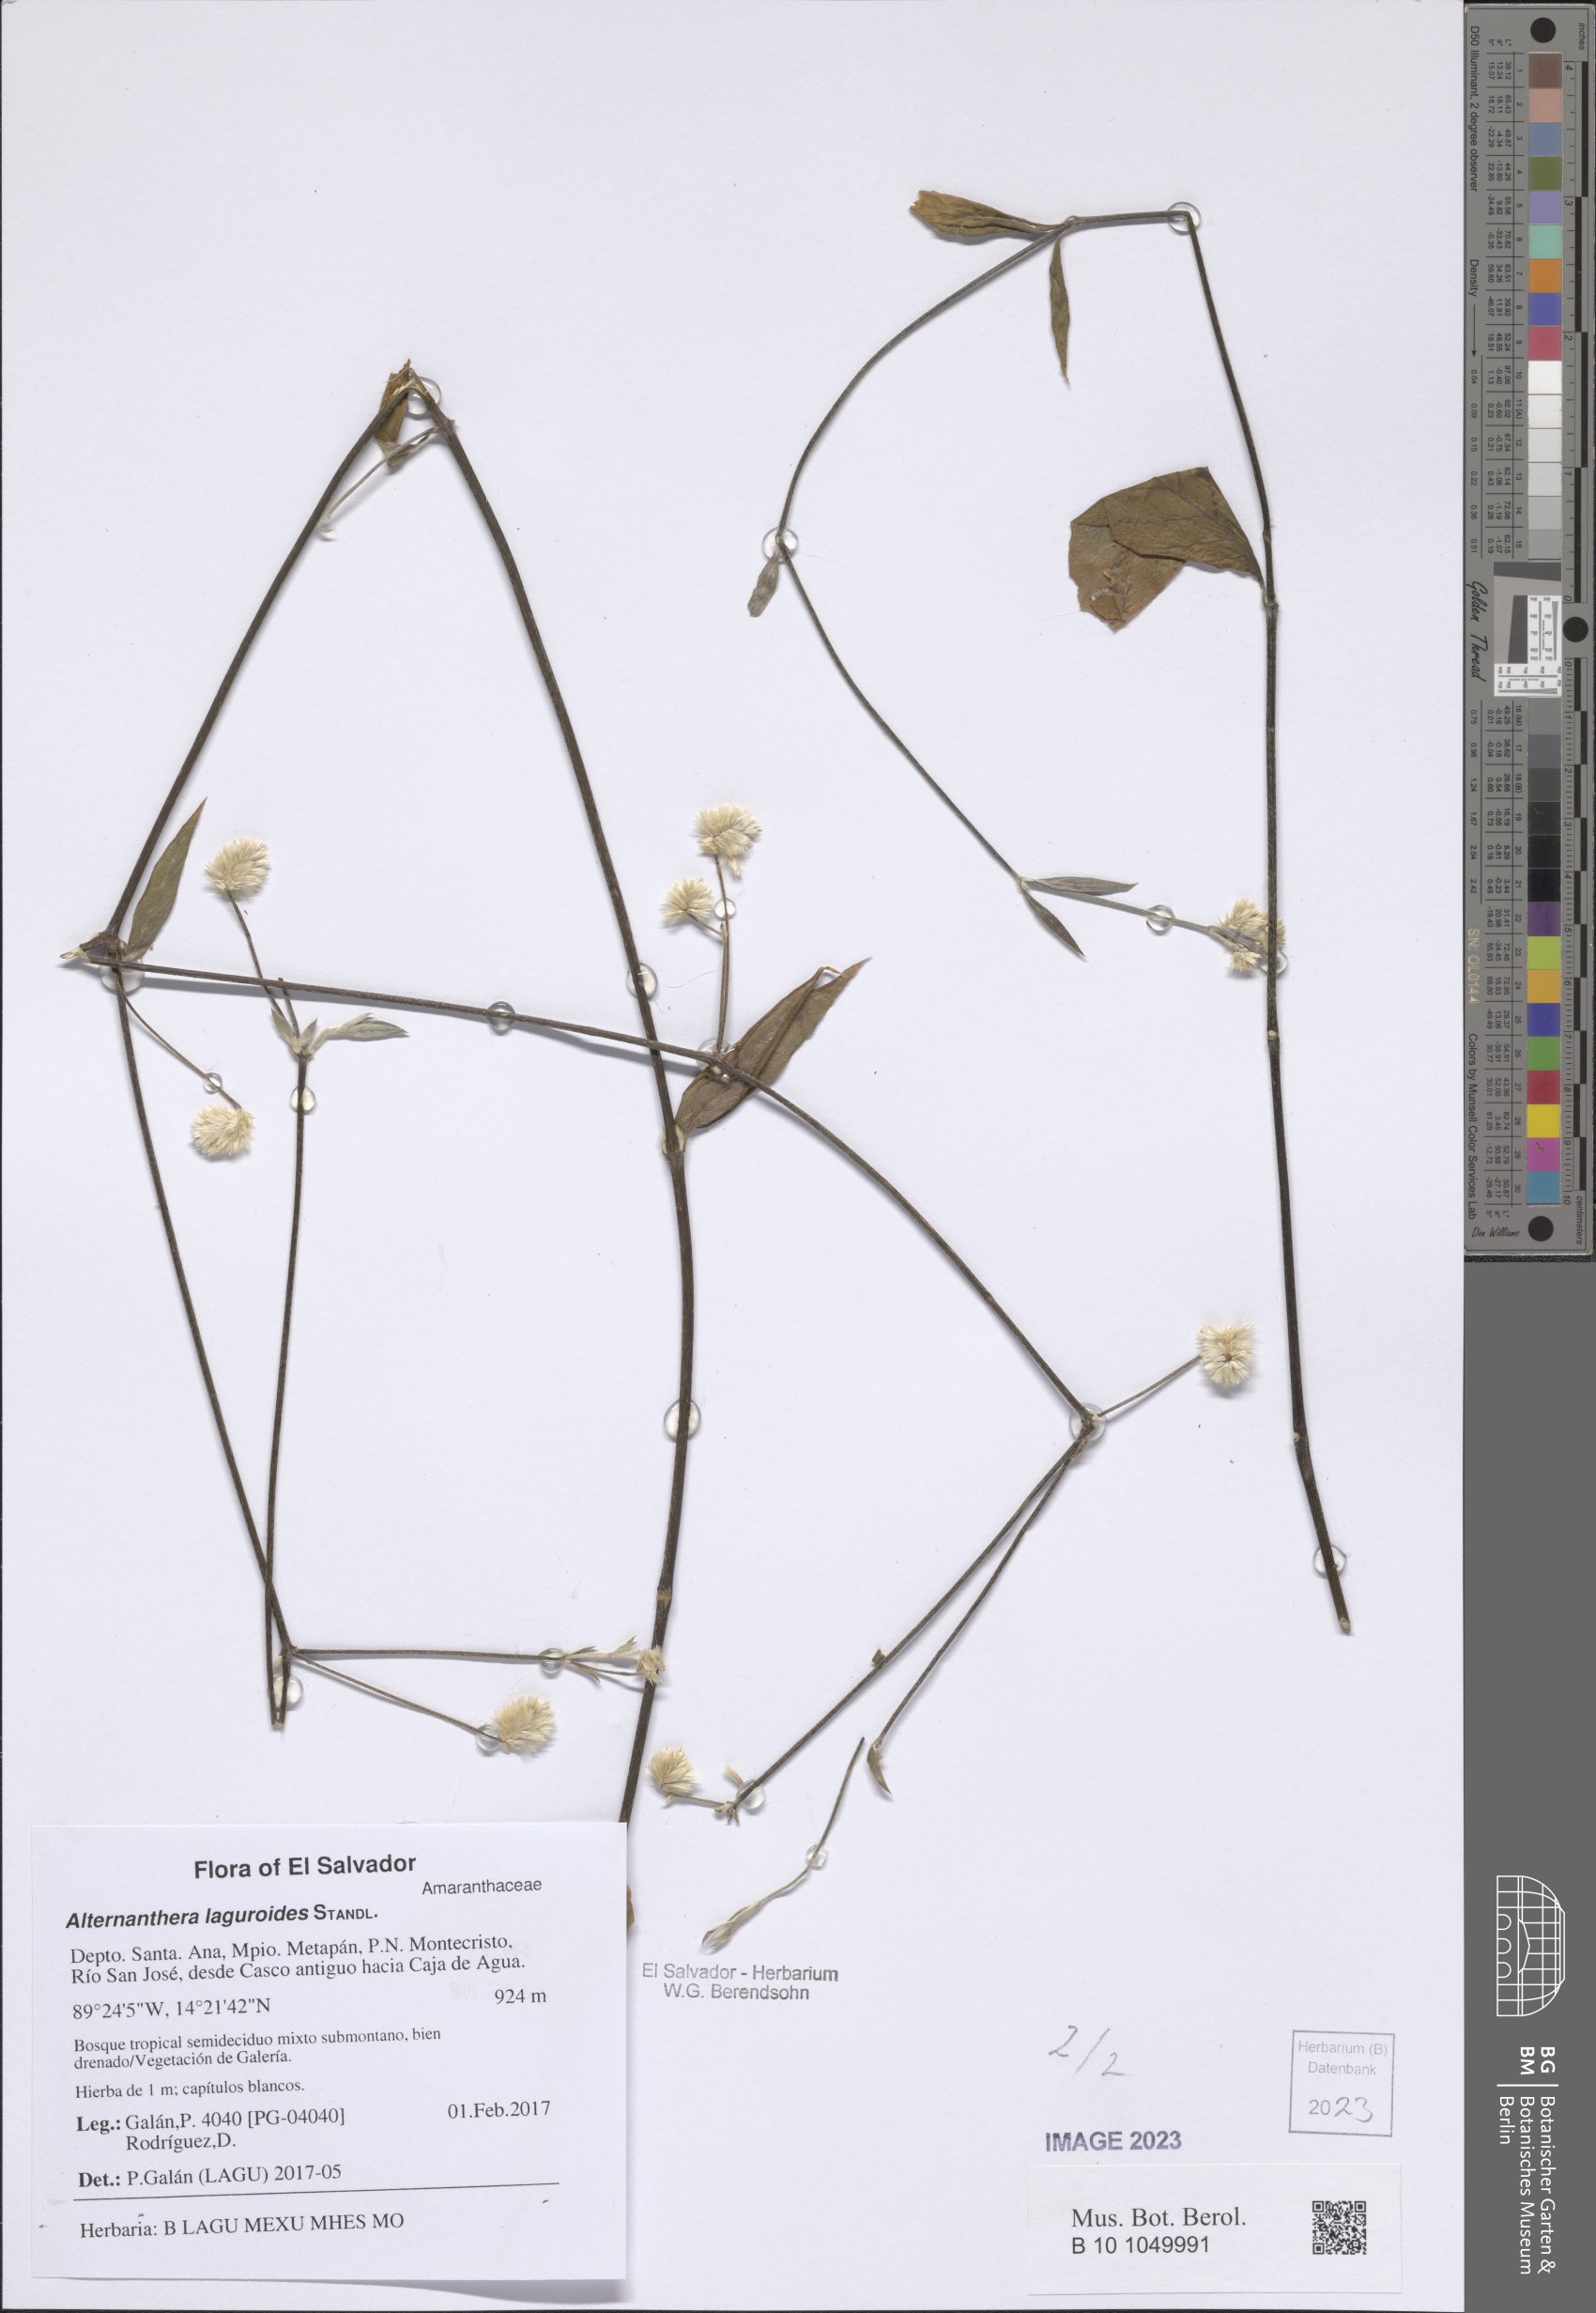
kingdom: Plantae
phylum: Tracheophyta
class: Magnoliopsida
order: Caryophyllales
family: Amaranthaceae
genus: Alternanthera
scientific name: Alternanthera laguroides
